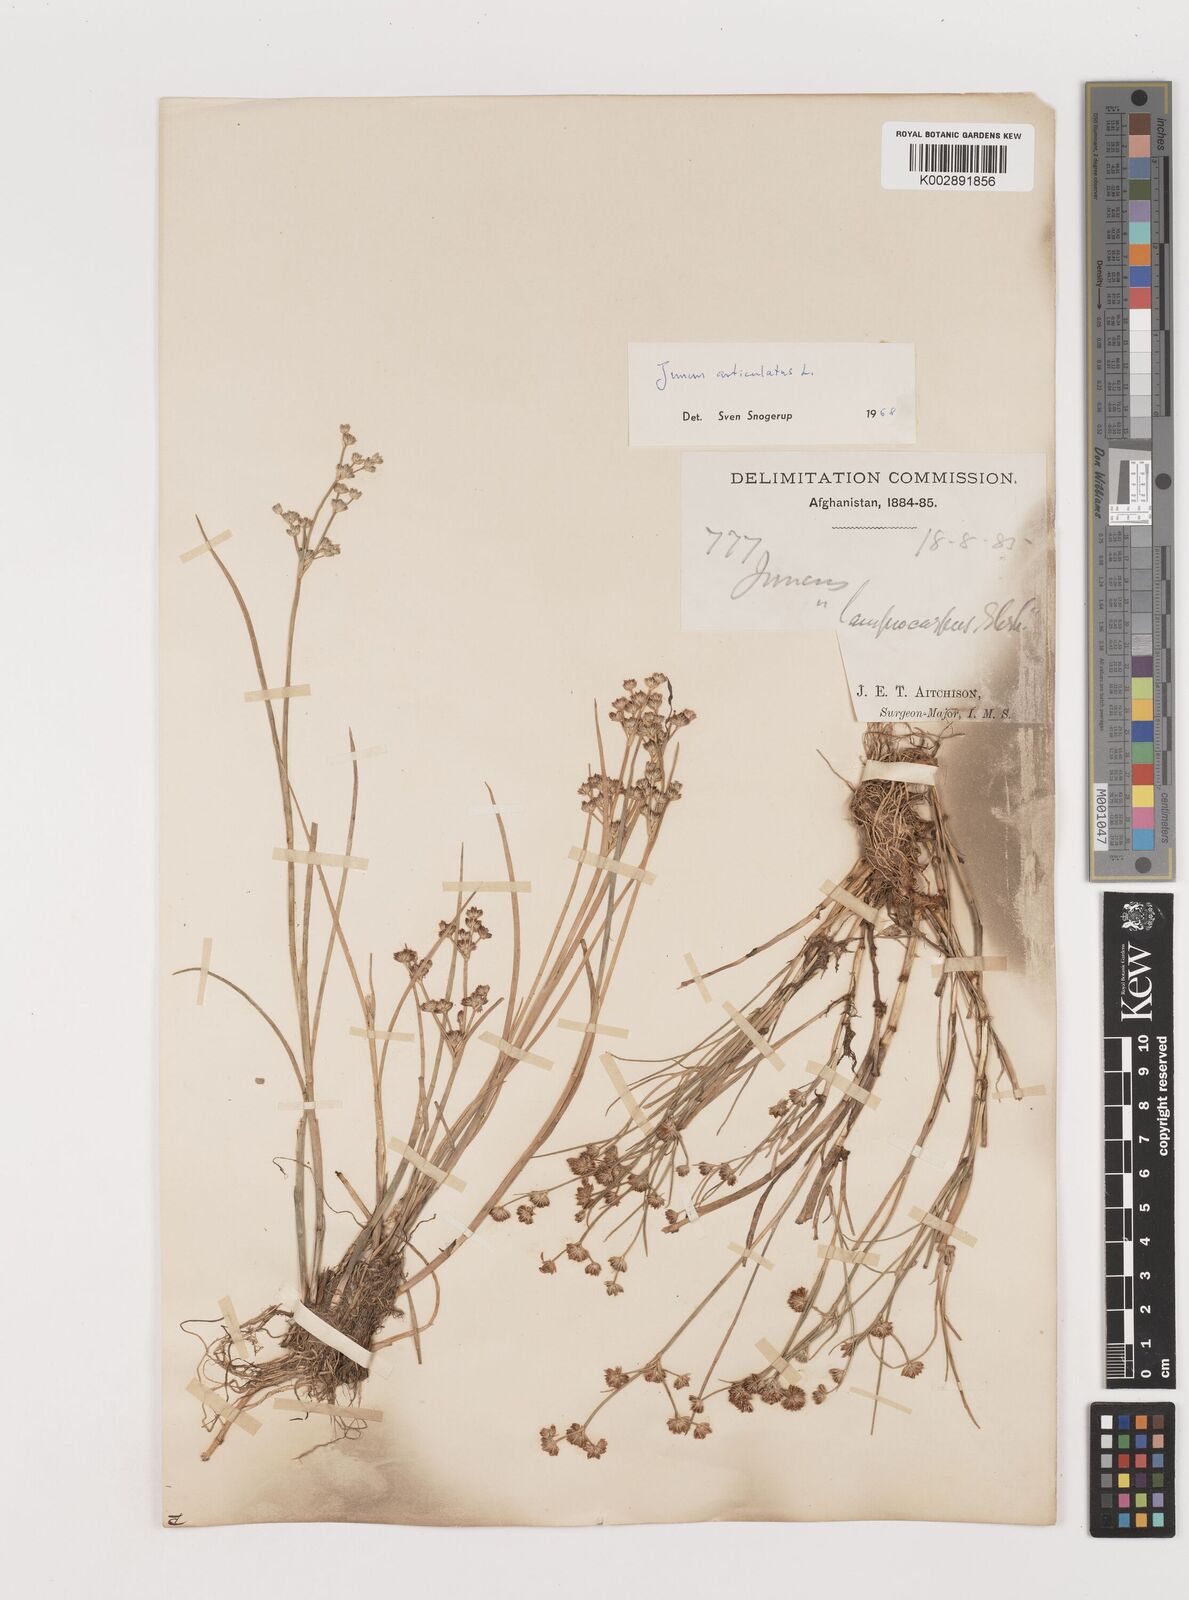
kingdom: Plantae
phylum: Tracheophyta
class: Liliopsida
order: Poales
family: Juncaceae
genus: Juncus
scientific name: Juncus articulatus
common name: Jointed rush
